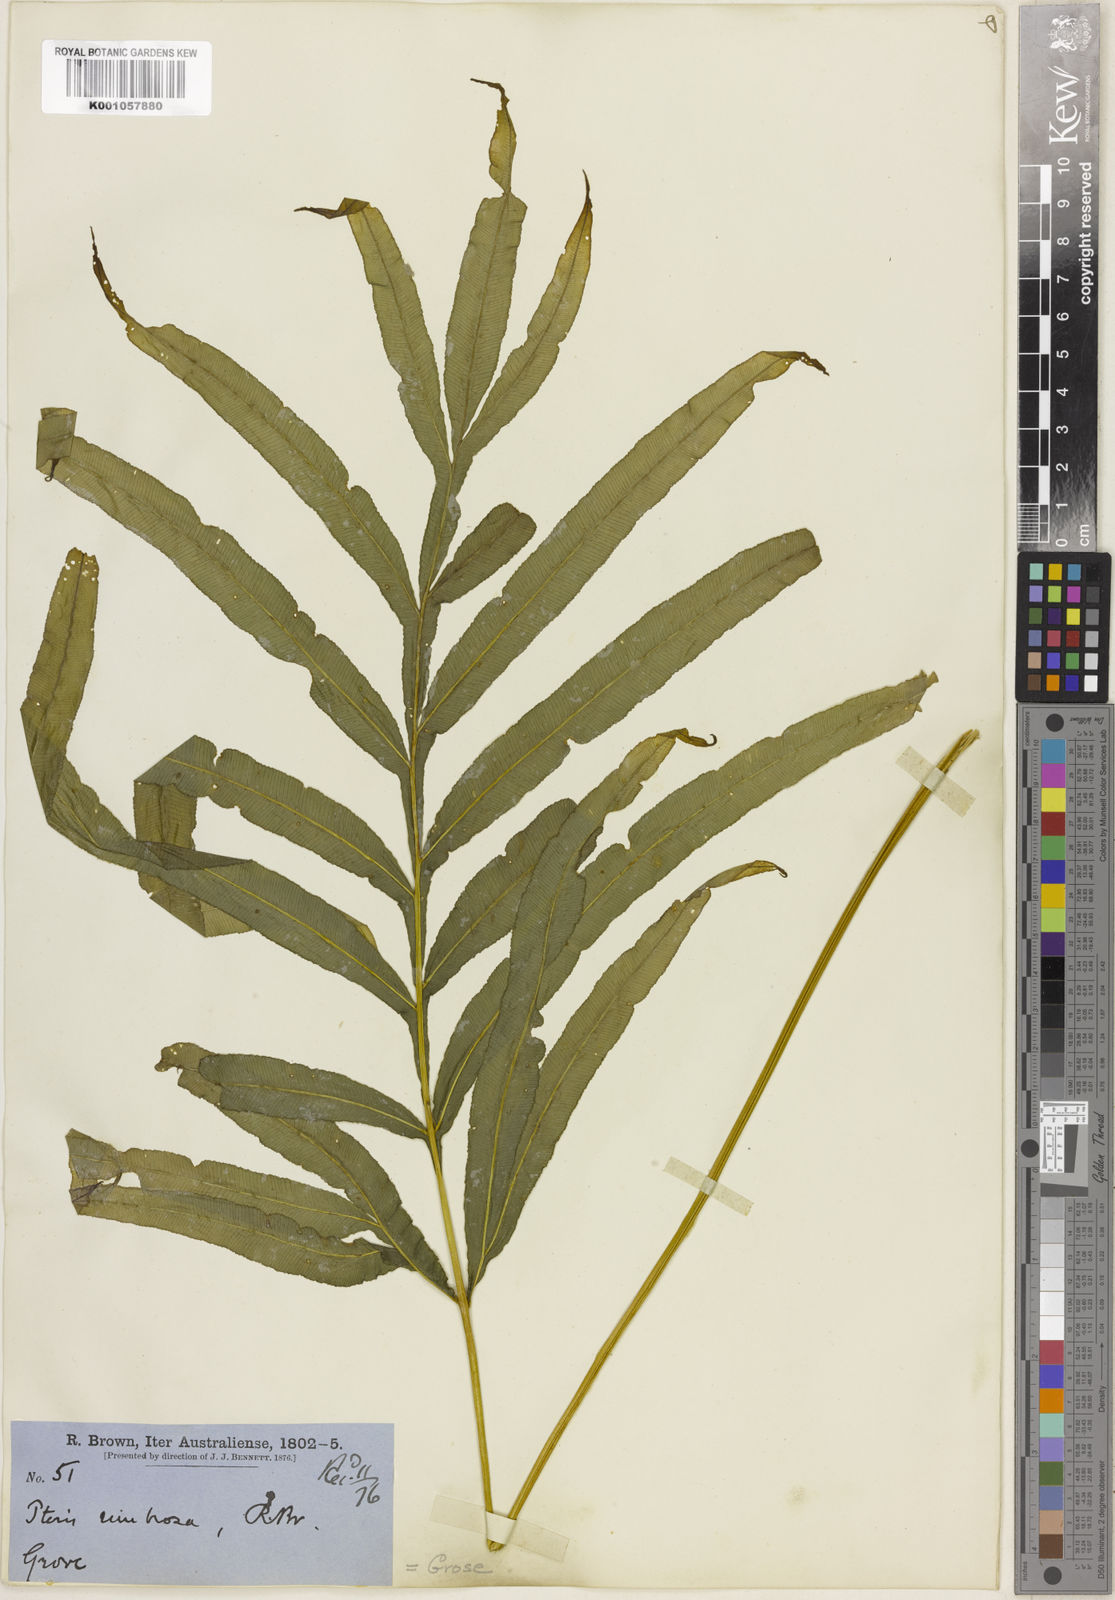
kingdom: Plantae
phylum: Tracheophyta
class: Polypodiopsida
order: Polypodiales
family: Pteridaceae
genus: Pteris
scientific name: Pteris umbrosa
